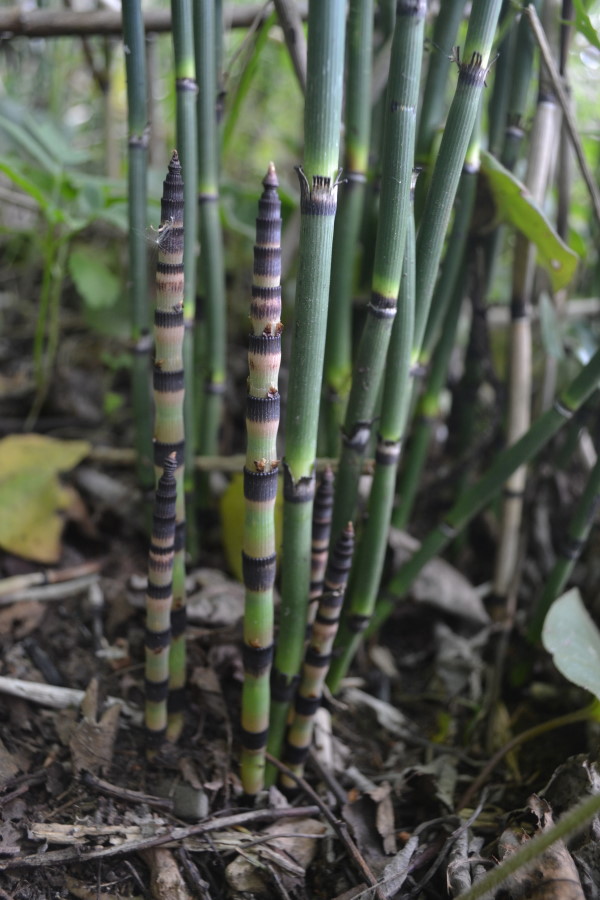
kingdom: Plantae
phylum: Tracheophyta
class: Polypodiopsida
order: Equisetales
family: Equisetaceae
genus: Equisetum
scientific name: Equisetum hyemale
